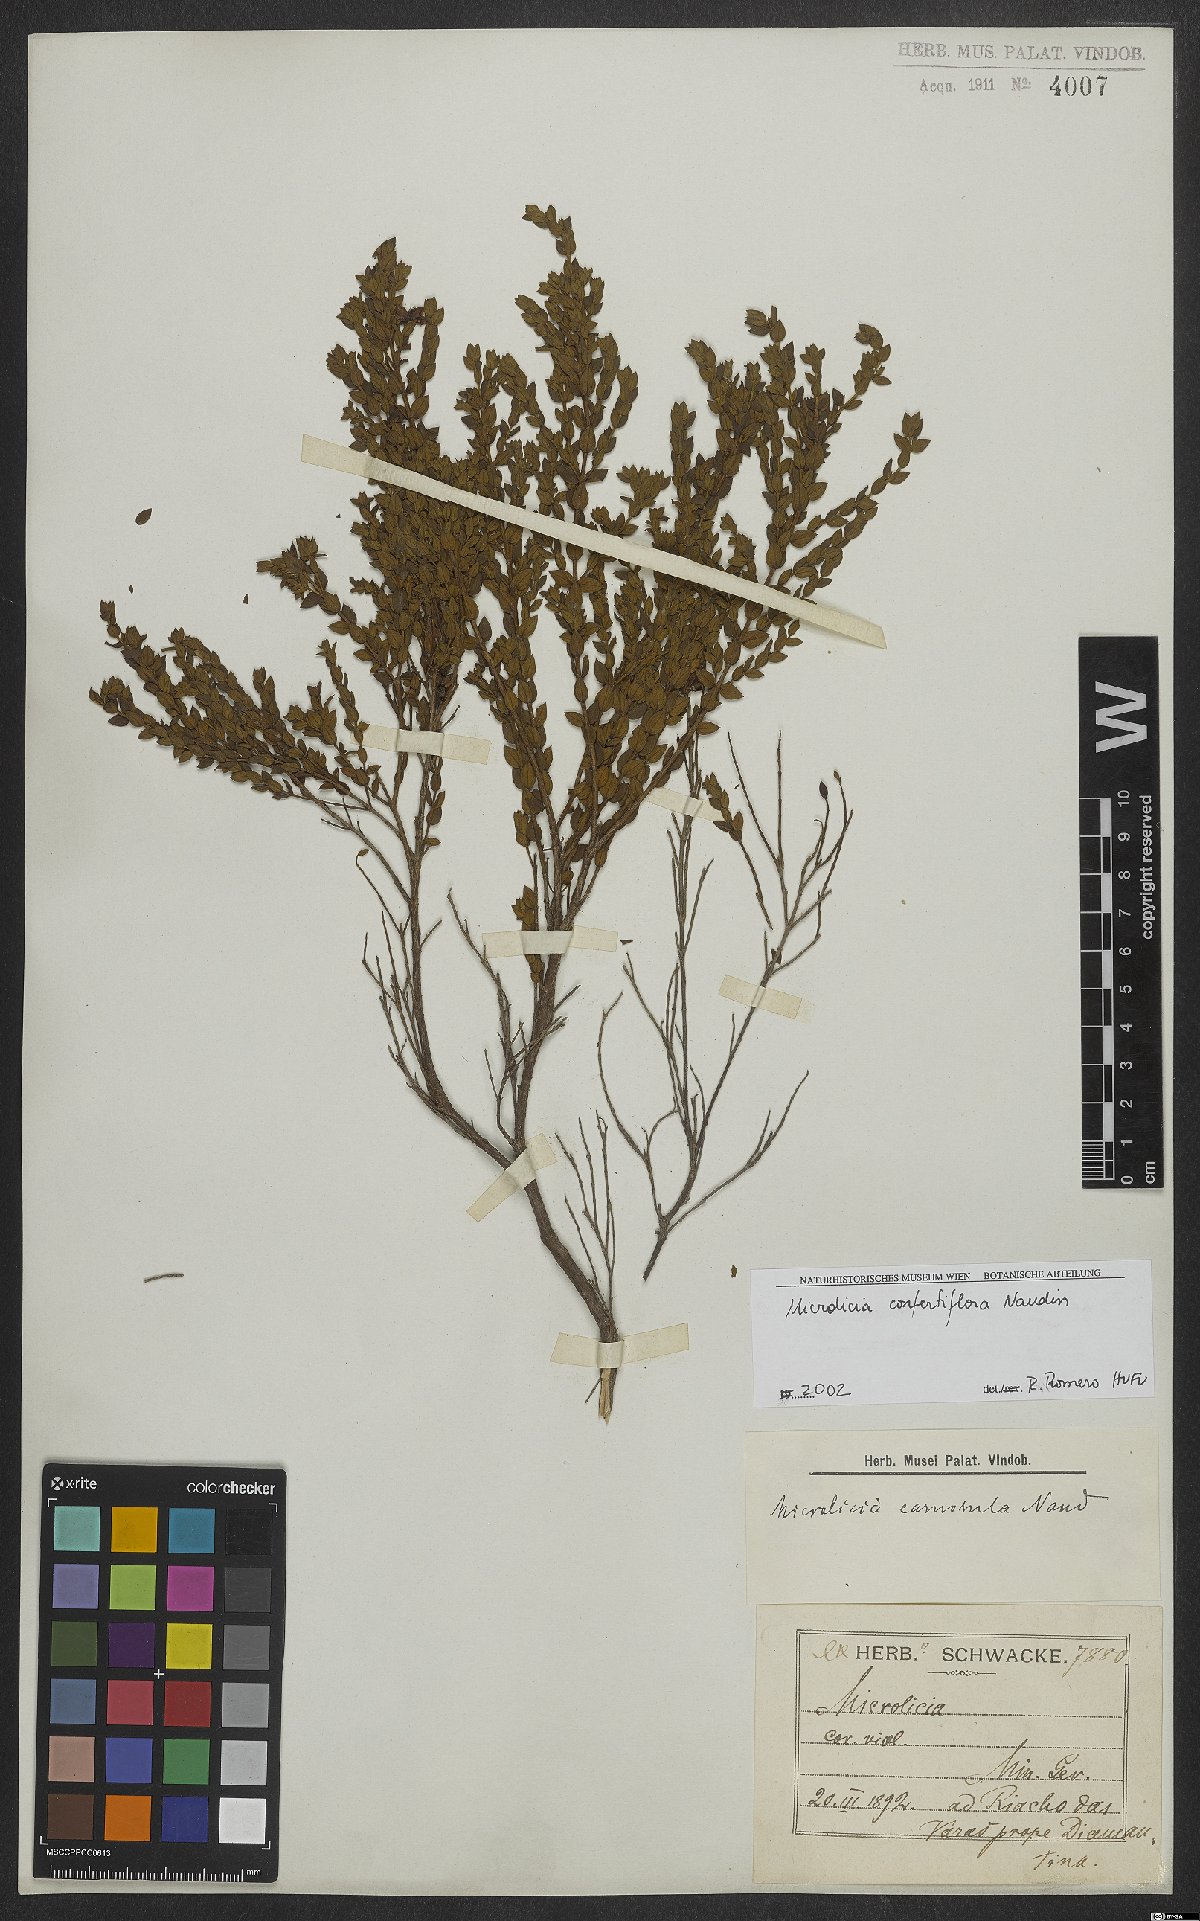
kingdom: Plantae
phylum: Tracheophyta
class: Magnoliopsida
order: Myrtales
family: Melastomataceae
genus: Microlicia
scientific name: Microlicia confertiflora
